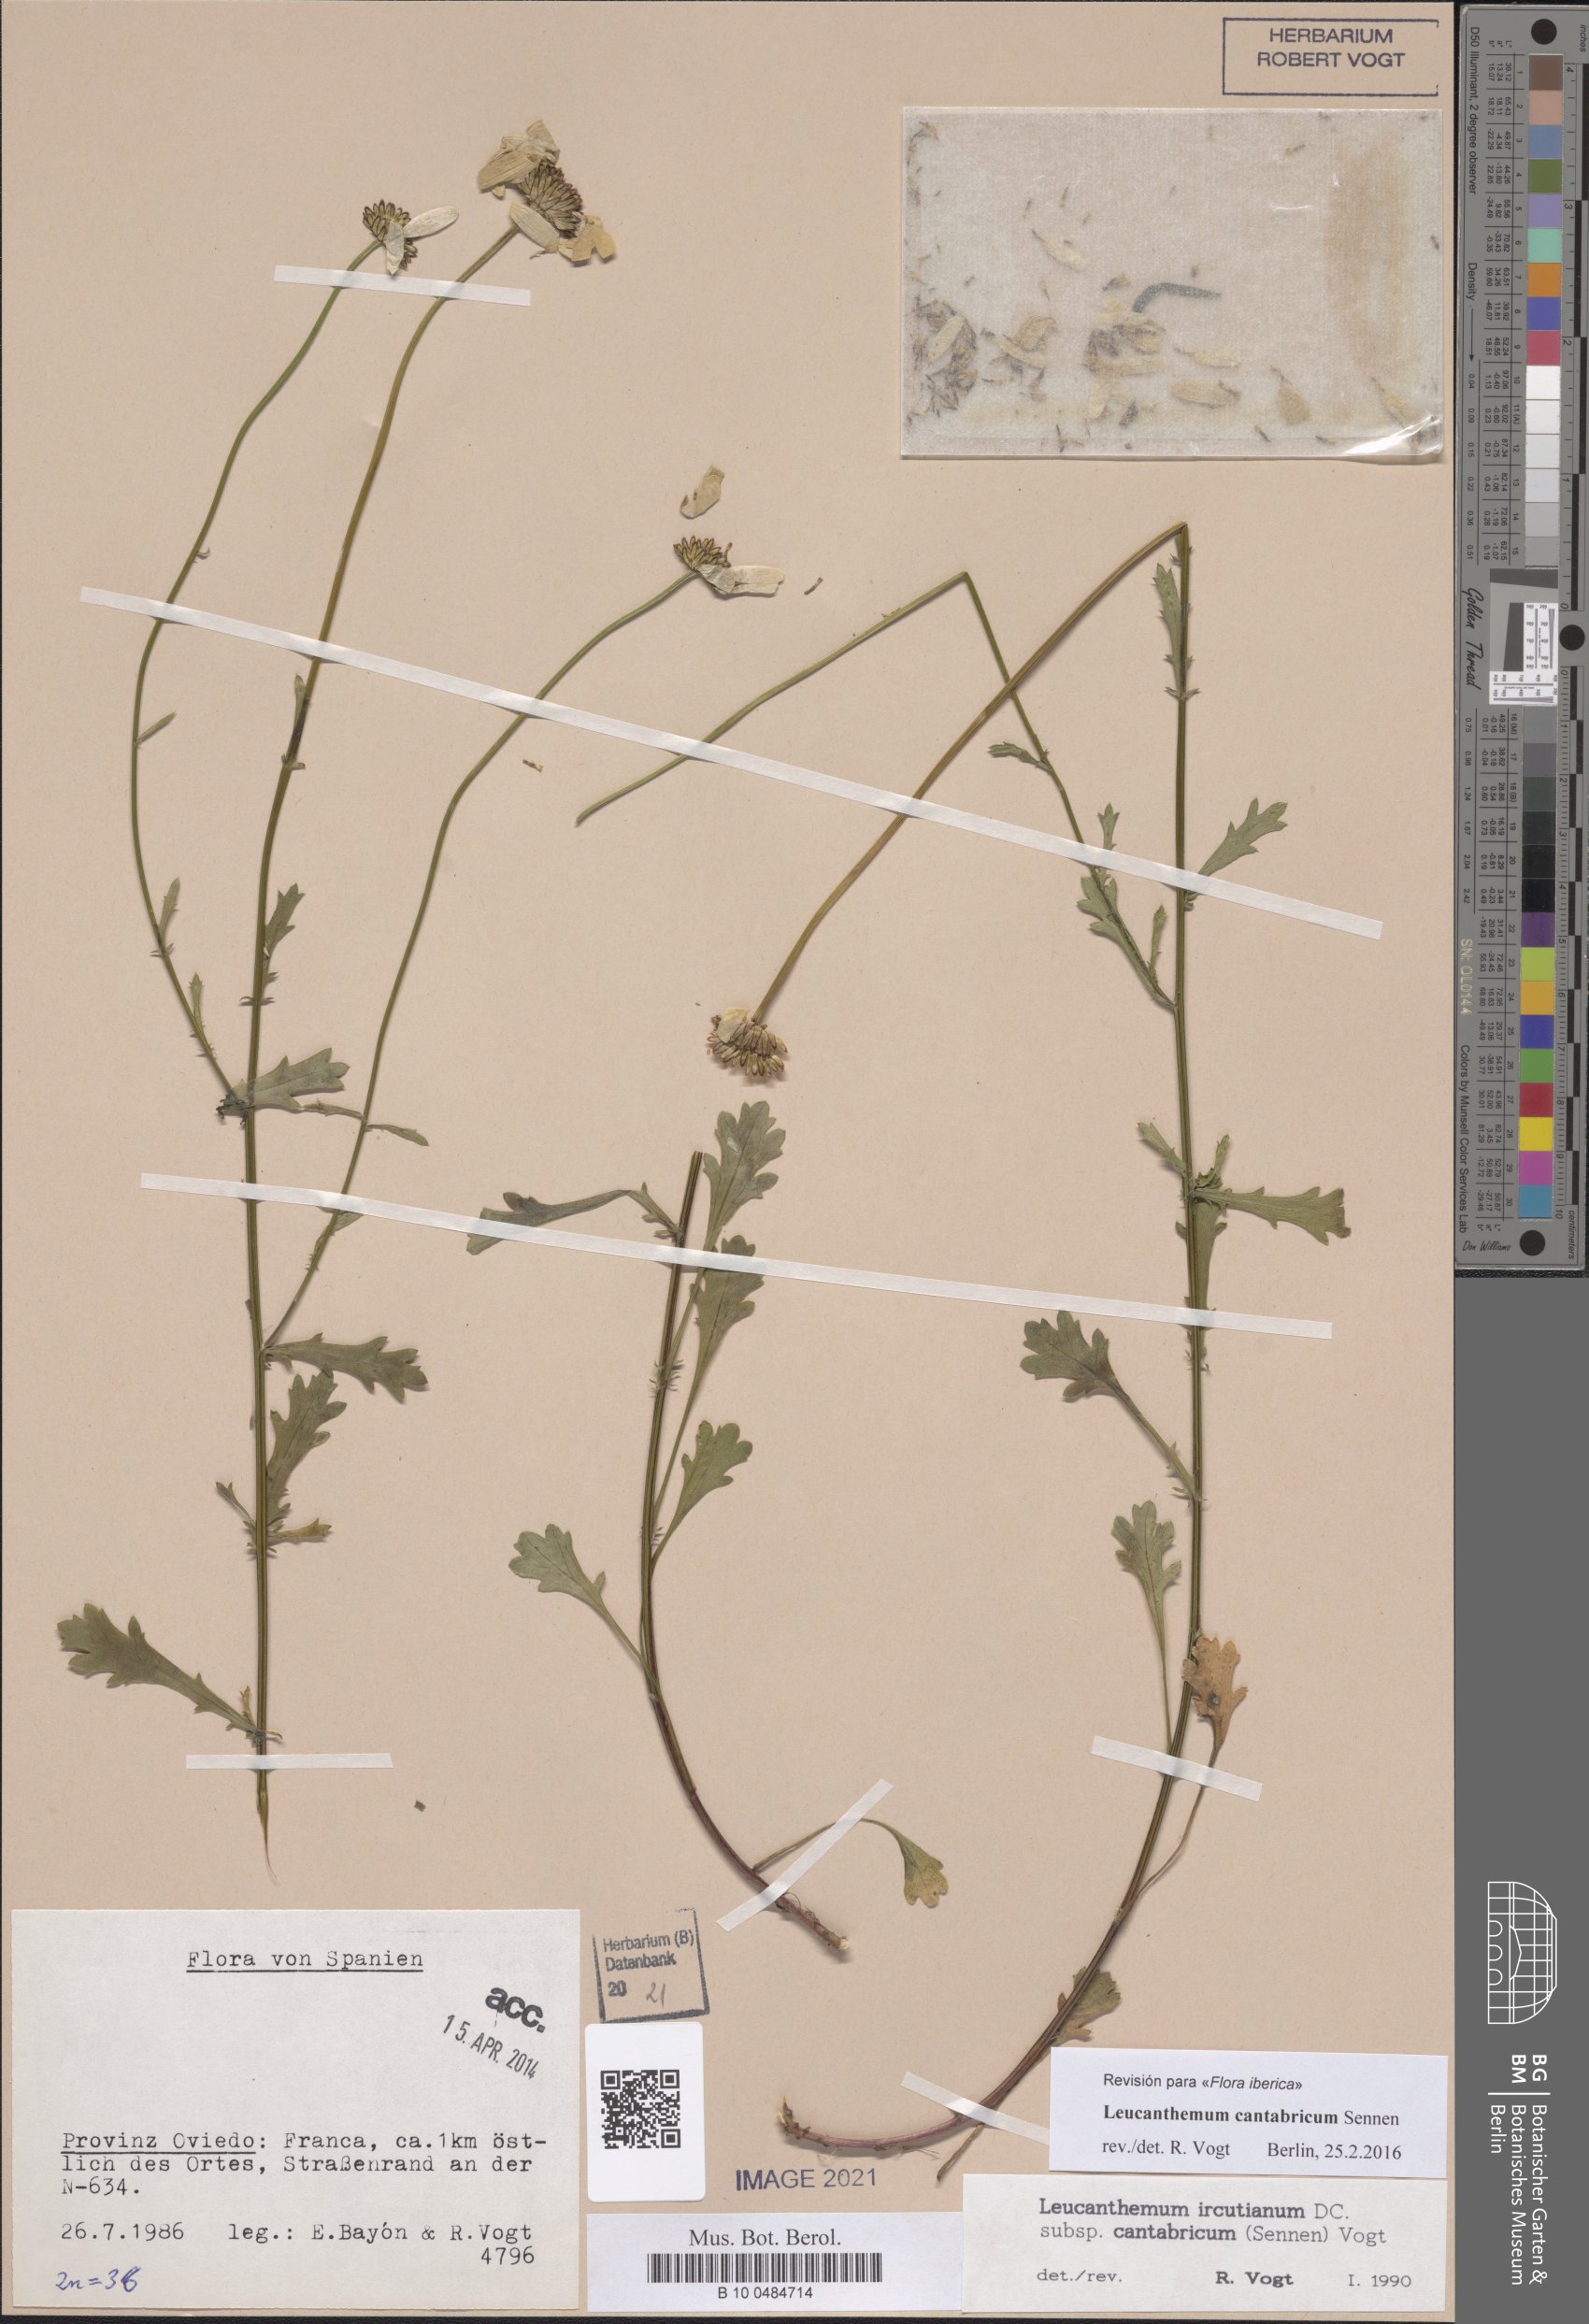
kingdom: Plantae
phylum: Tracheophyta
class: Magnoliopsida
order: Asterales
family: Asteraceae
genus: Leucanthemum
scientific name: Leucanthemum cantabricum
